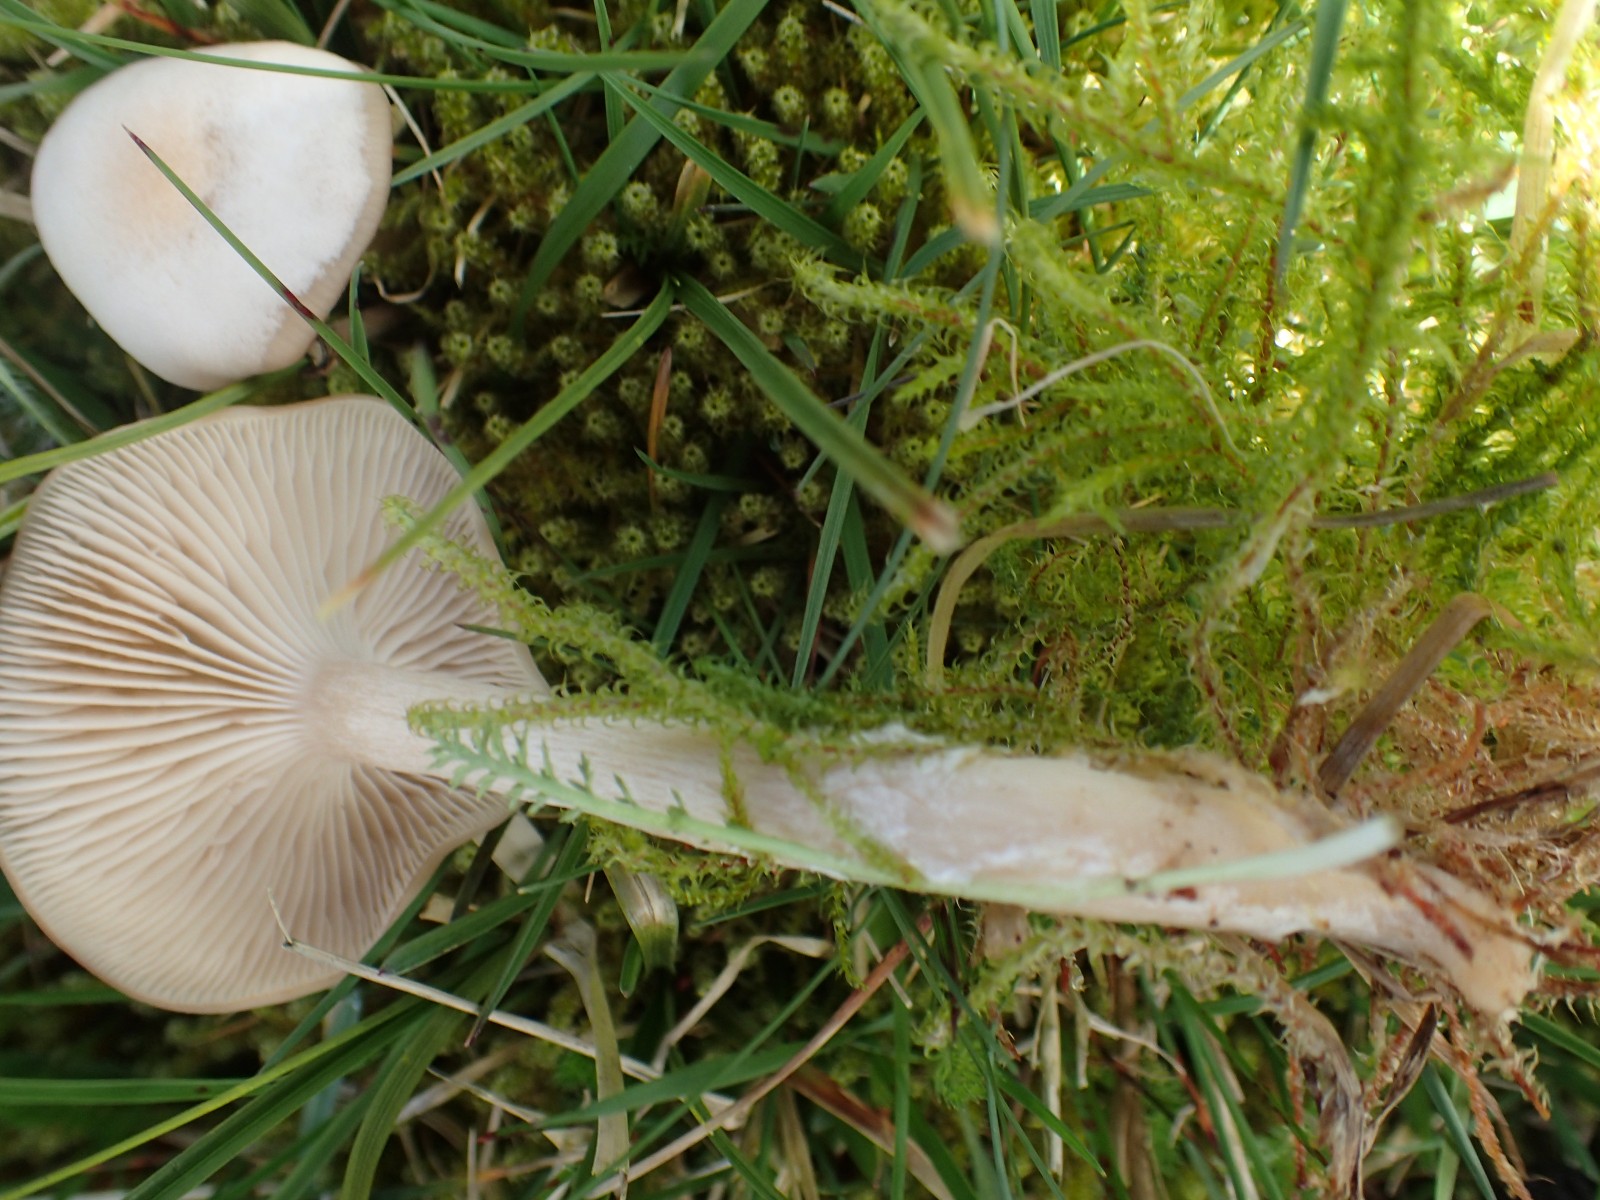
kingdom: Fungi
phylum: Basidiomycota
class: Agaricomycetes
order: Agaricales
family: Tricholomataceae
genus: Clitocybe
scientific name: Clitocybe fragrans
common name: vellugtende tragthat
